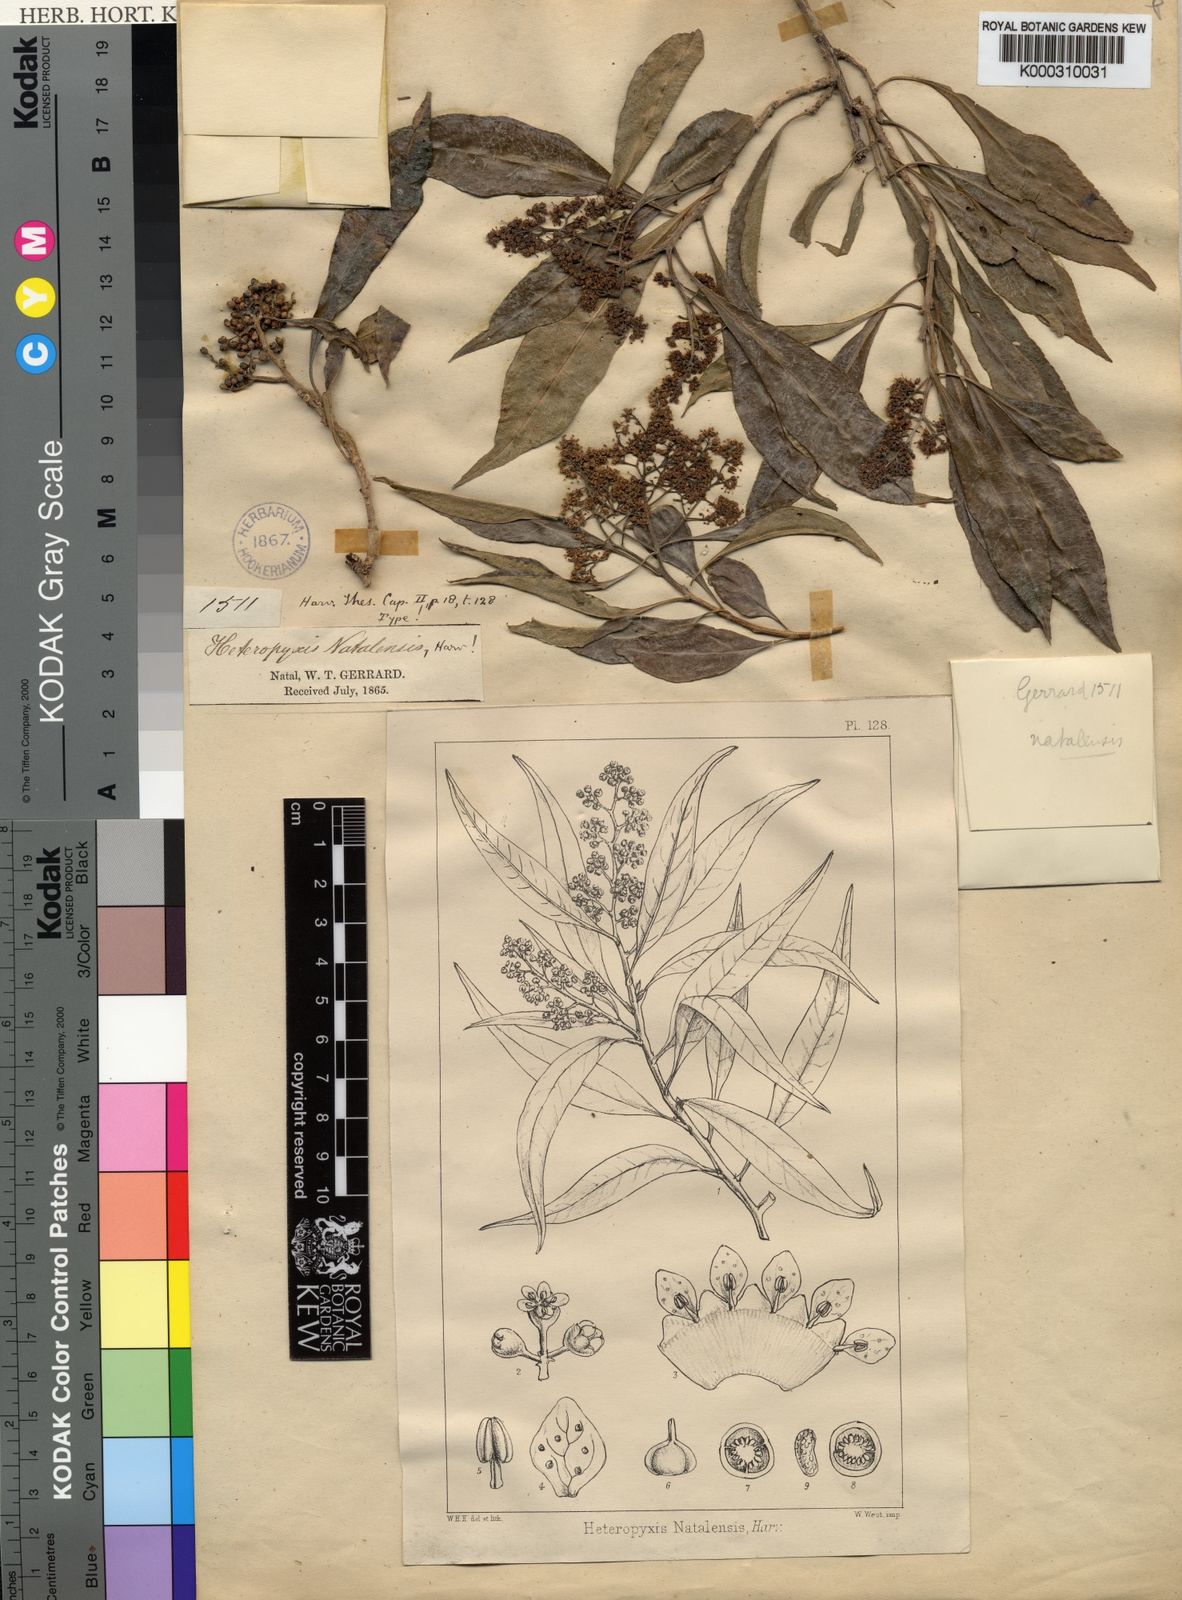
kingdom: Plantae
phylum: Tracheophyta
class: Magnoliopsida
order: Myrtales
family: Myrtaceae
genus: Heteropyxis
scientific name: Heteropyxis natalensis
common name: Lavender tree
